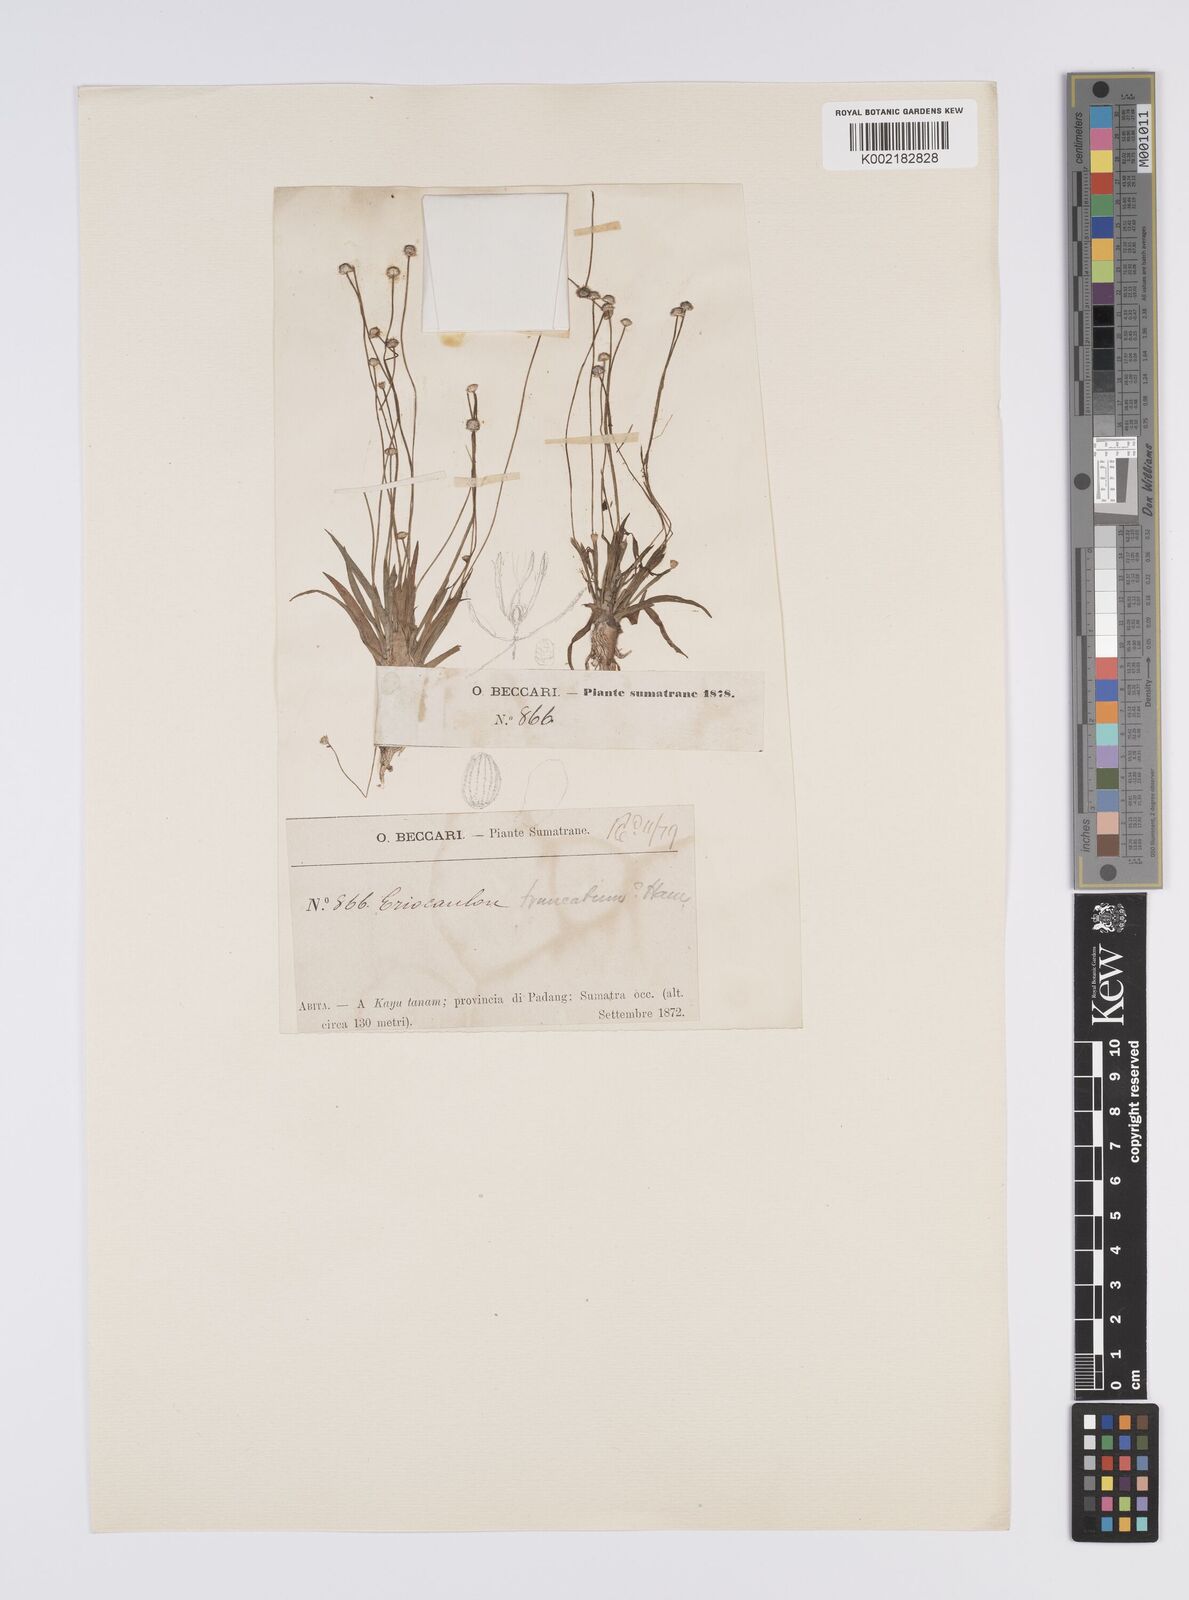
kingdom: Plantae
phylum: Tracheophyta
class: Liliopsida
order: Poales
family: Eriocaulaceae
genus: Eriocaulon
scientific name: Eriocaulon truncatum
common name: Short pipe-wort
